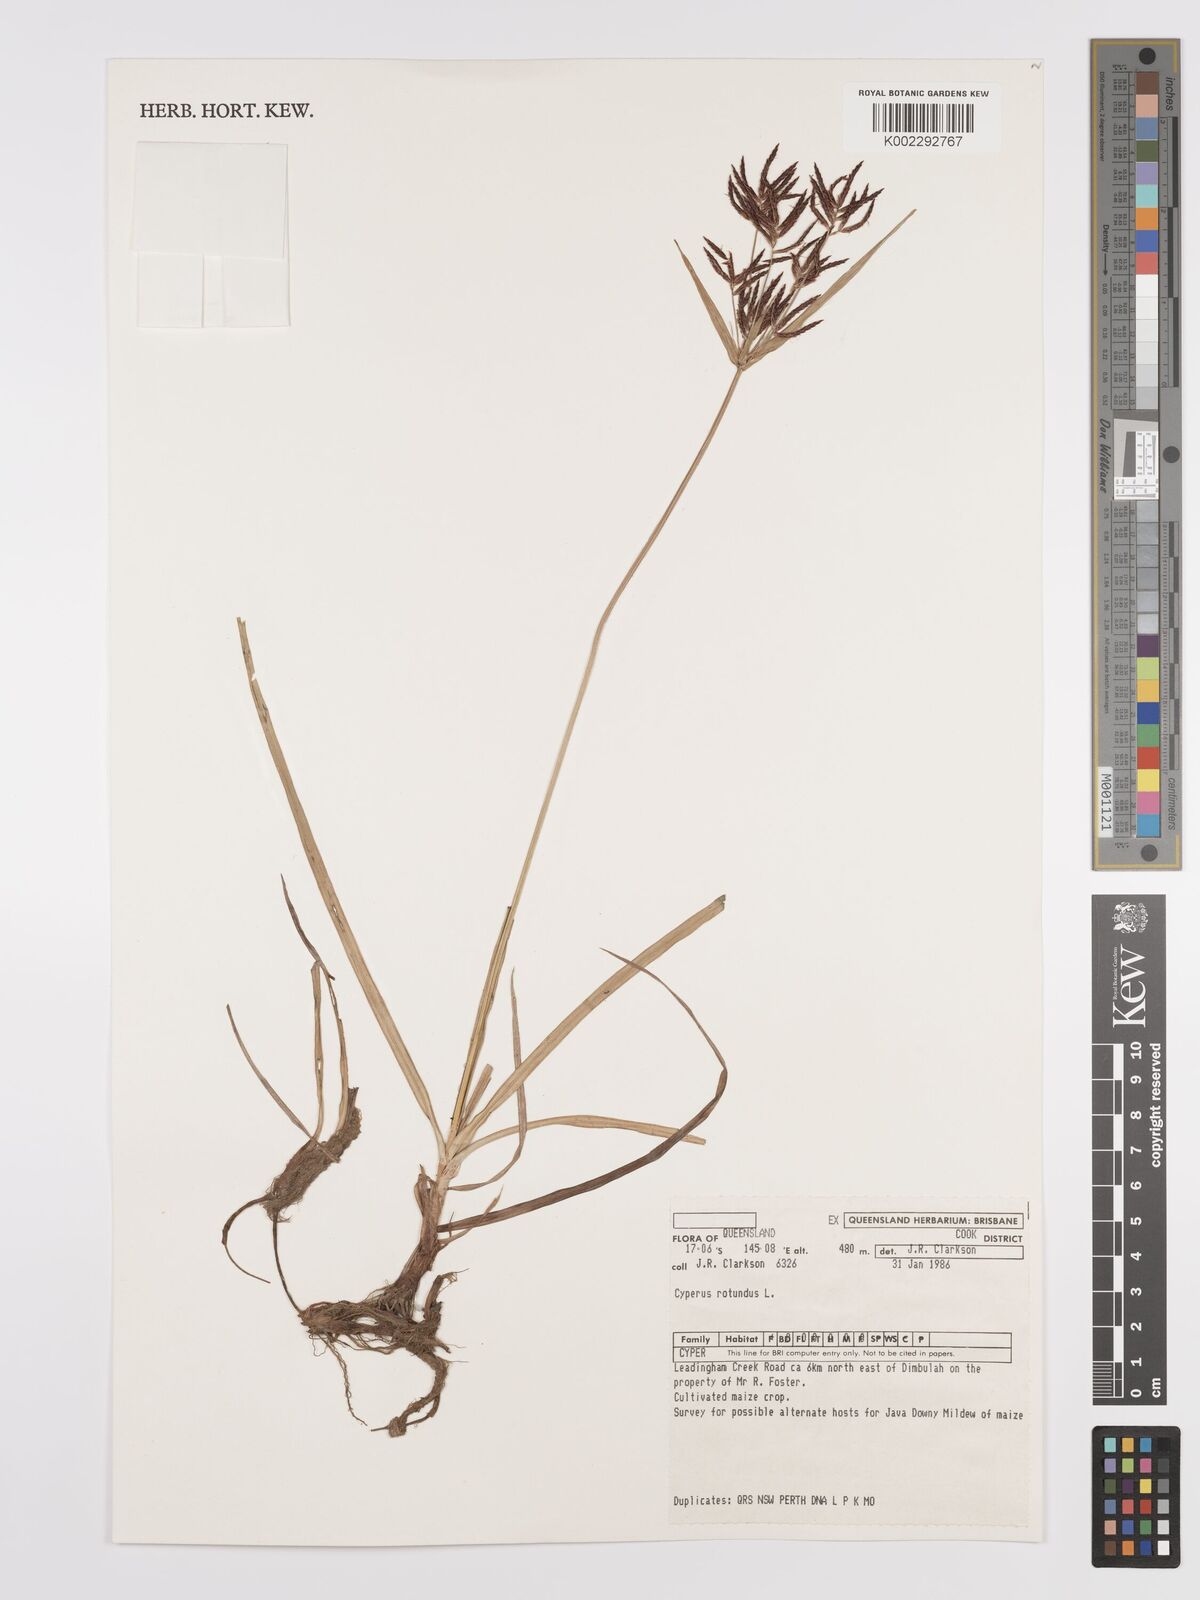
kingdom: Plantae
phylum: Tracheophyta
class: Liliopsida
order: Poales
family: Cyperaceae
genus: Cyperus
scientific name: Cyperus rotundus
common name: Nutgrass
